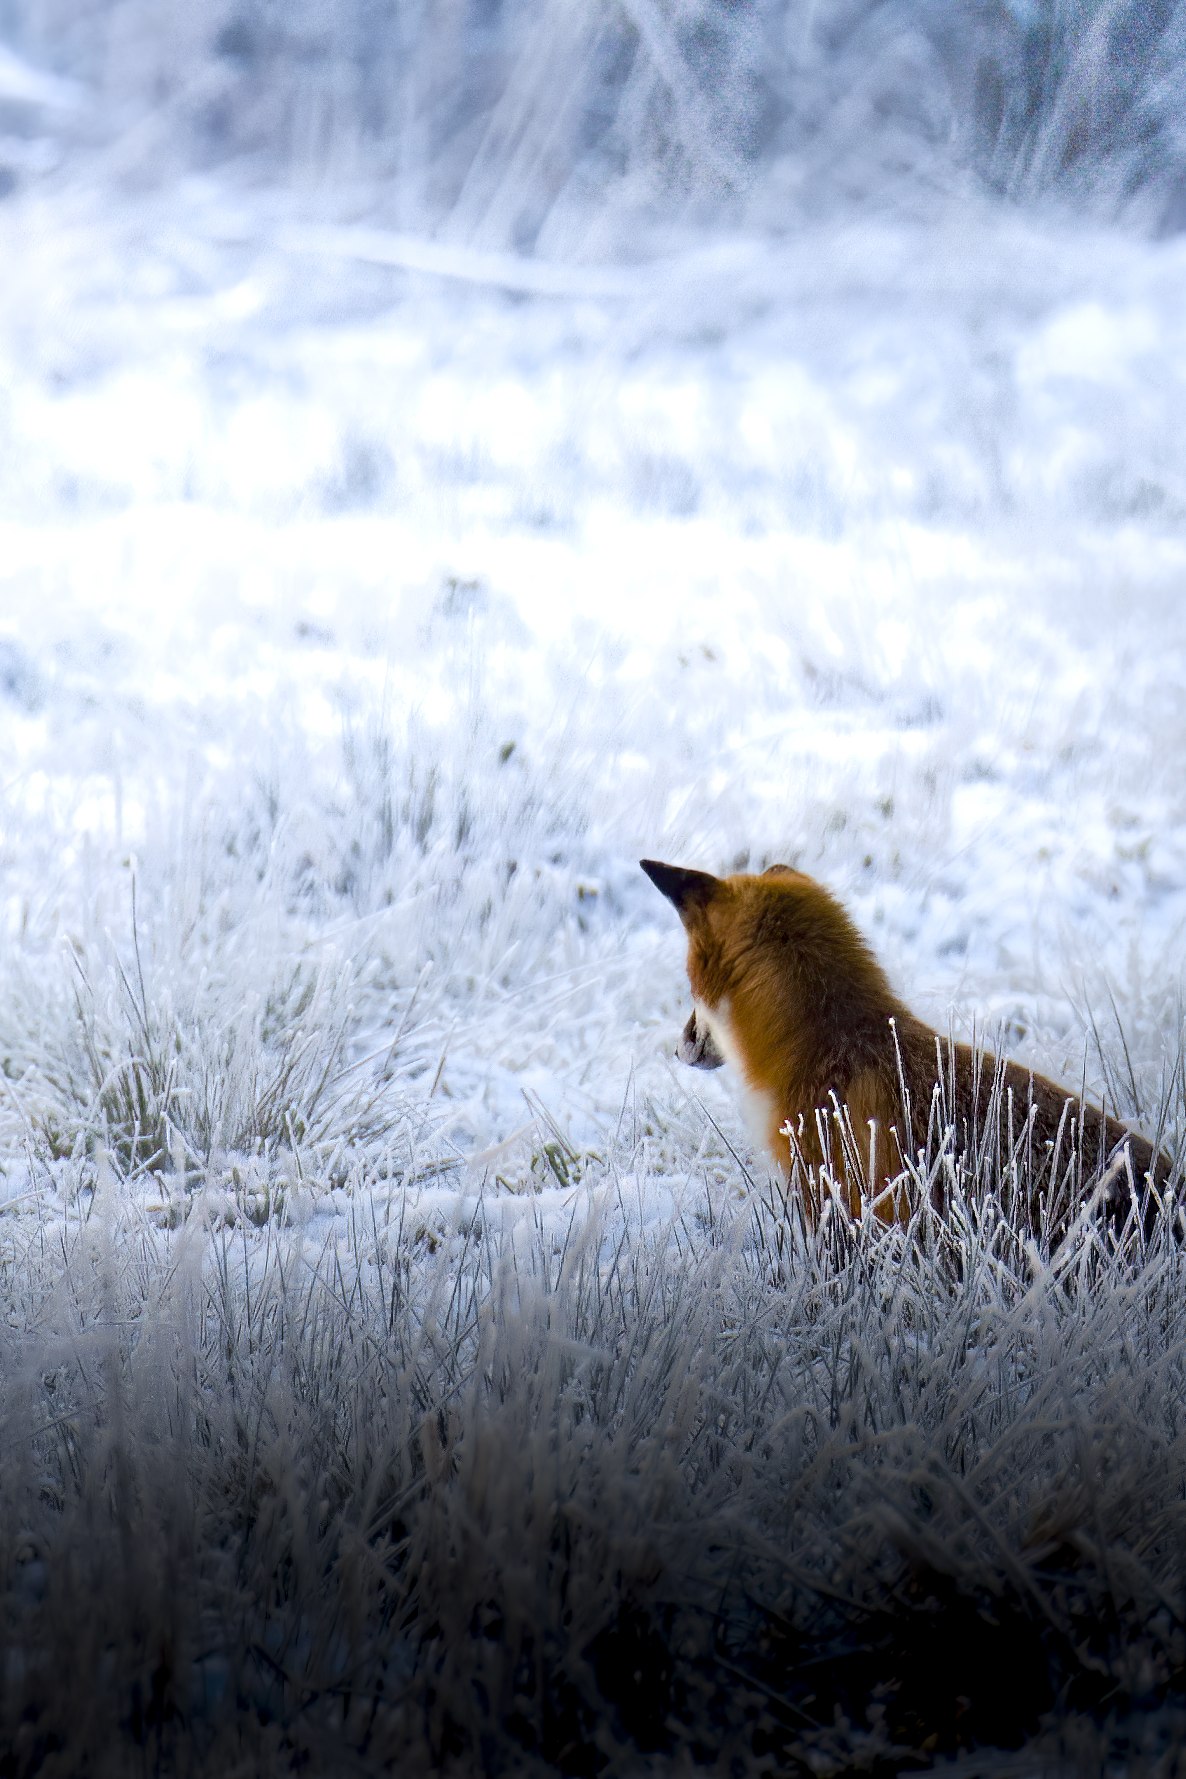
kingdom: Animalia
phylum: Chordata
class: Mammalia
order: Carnivora
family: Canidae
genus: Vulpes
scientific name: Vulpes vulpes
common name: Ræv
